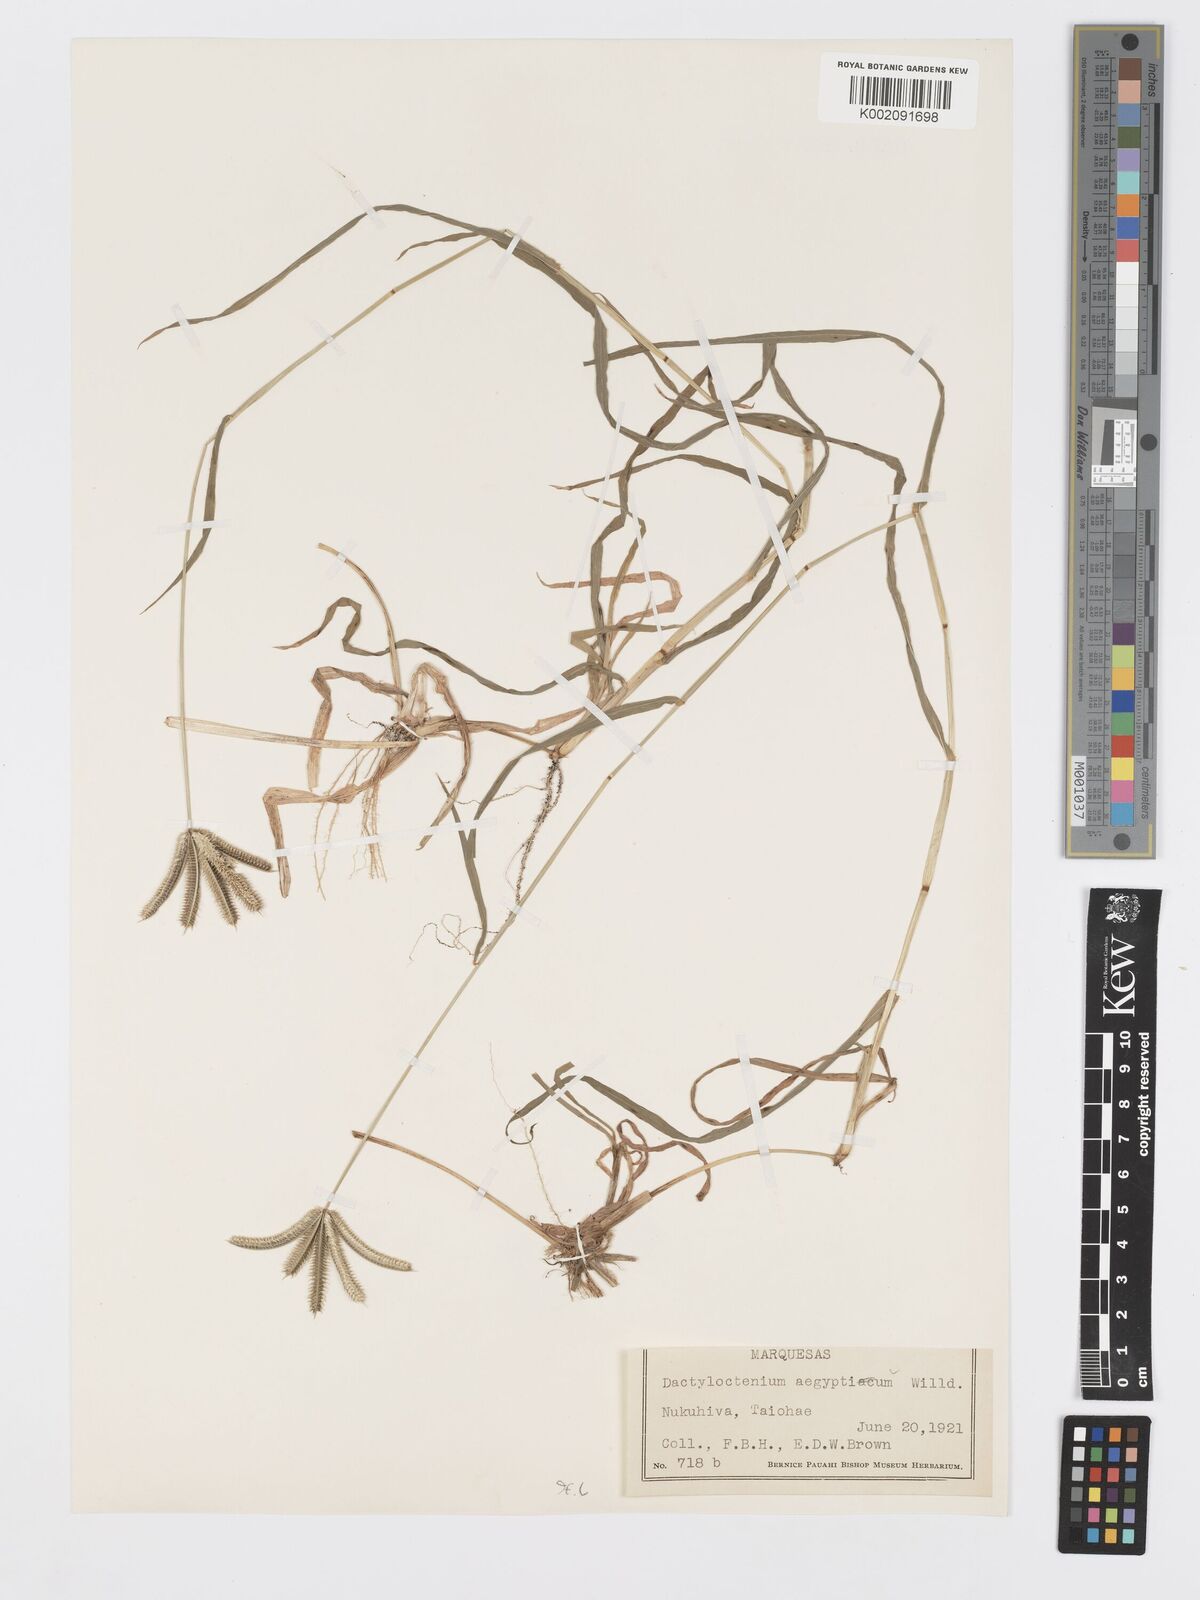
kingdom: Plantae
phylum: Tracheophyta
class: Liliopsida
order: Poales
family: Poaceae
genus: Dactyloctenium
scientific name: Dactyloctenium aegyptium
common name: Egyptian grass
